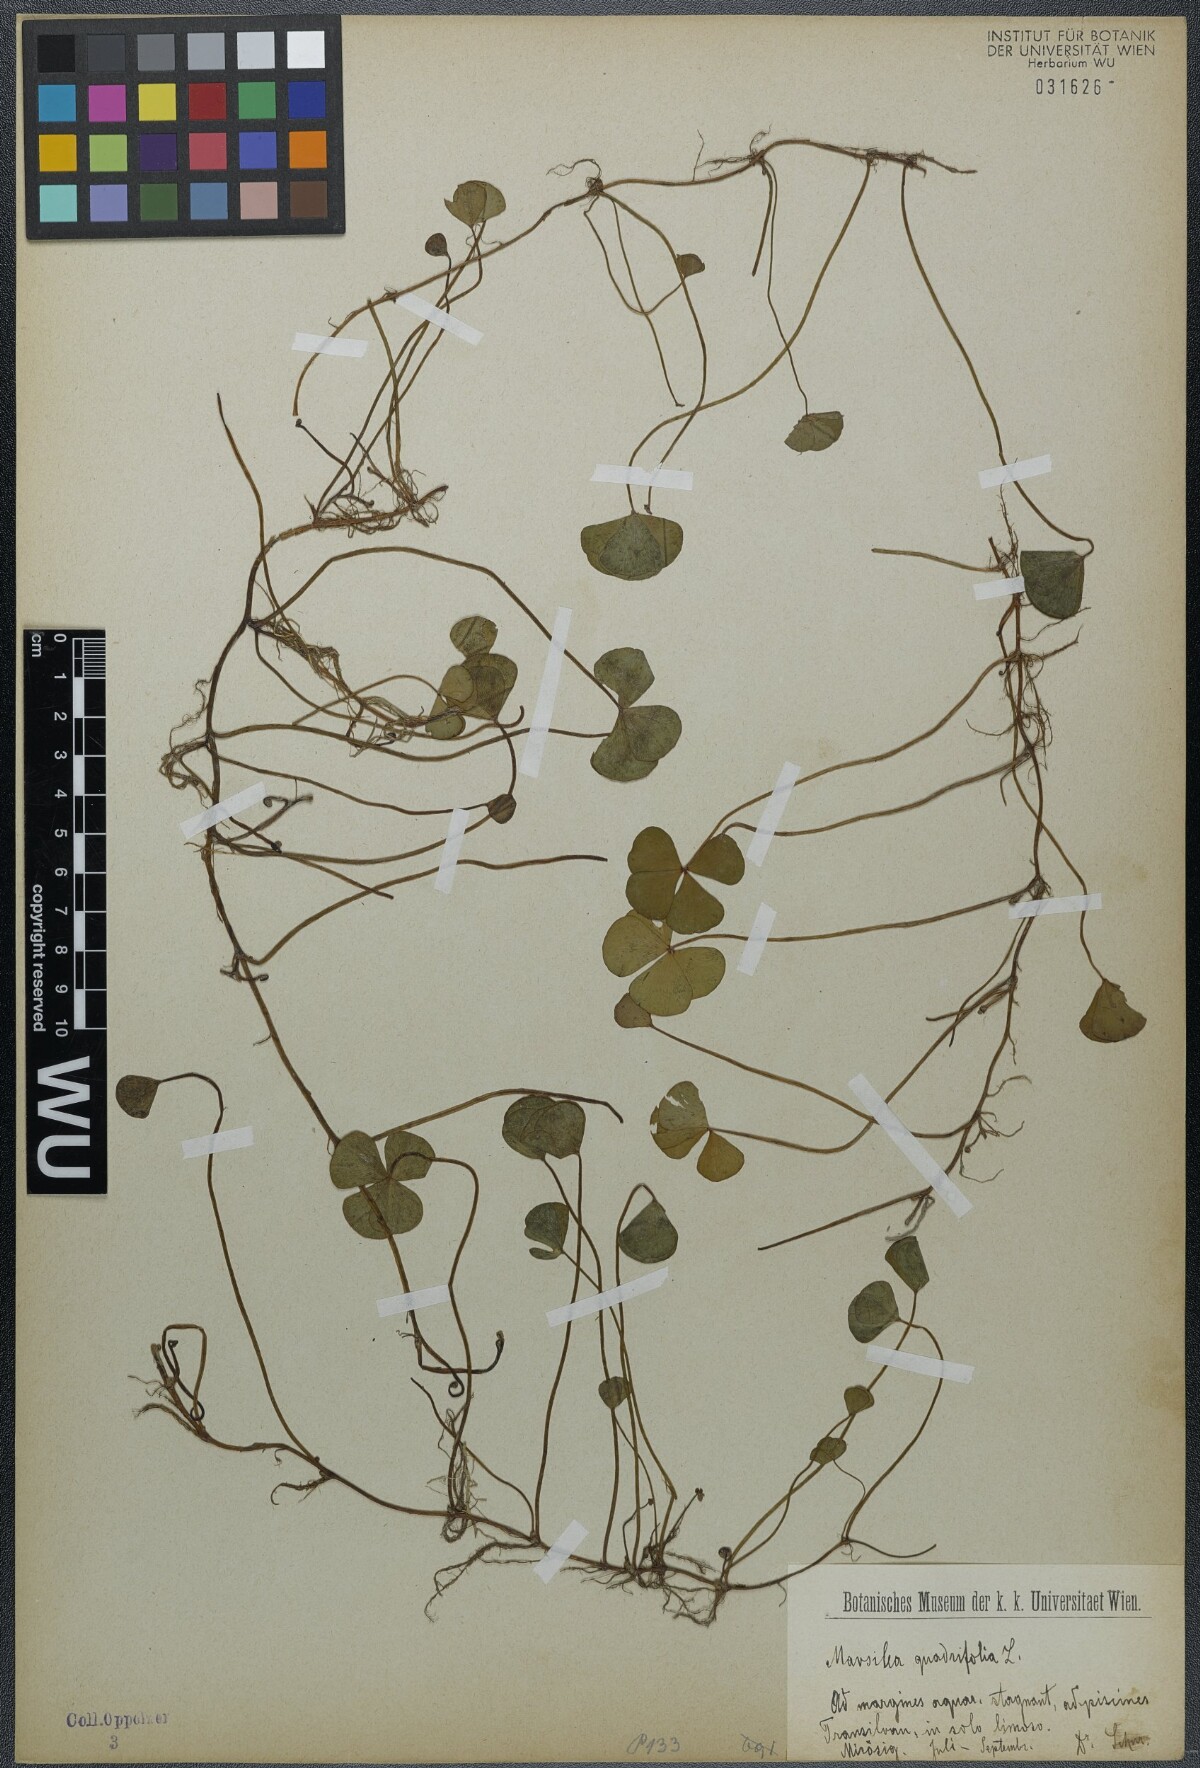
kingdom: Plantae
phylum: Tracheophyta
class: Polypodiopsida
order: Salviniales
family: Marsileaceae
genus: Marsilea
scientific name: Marsilea quadrifolia
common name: Water shamrock
